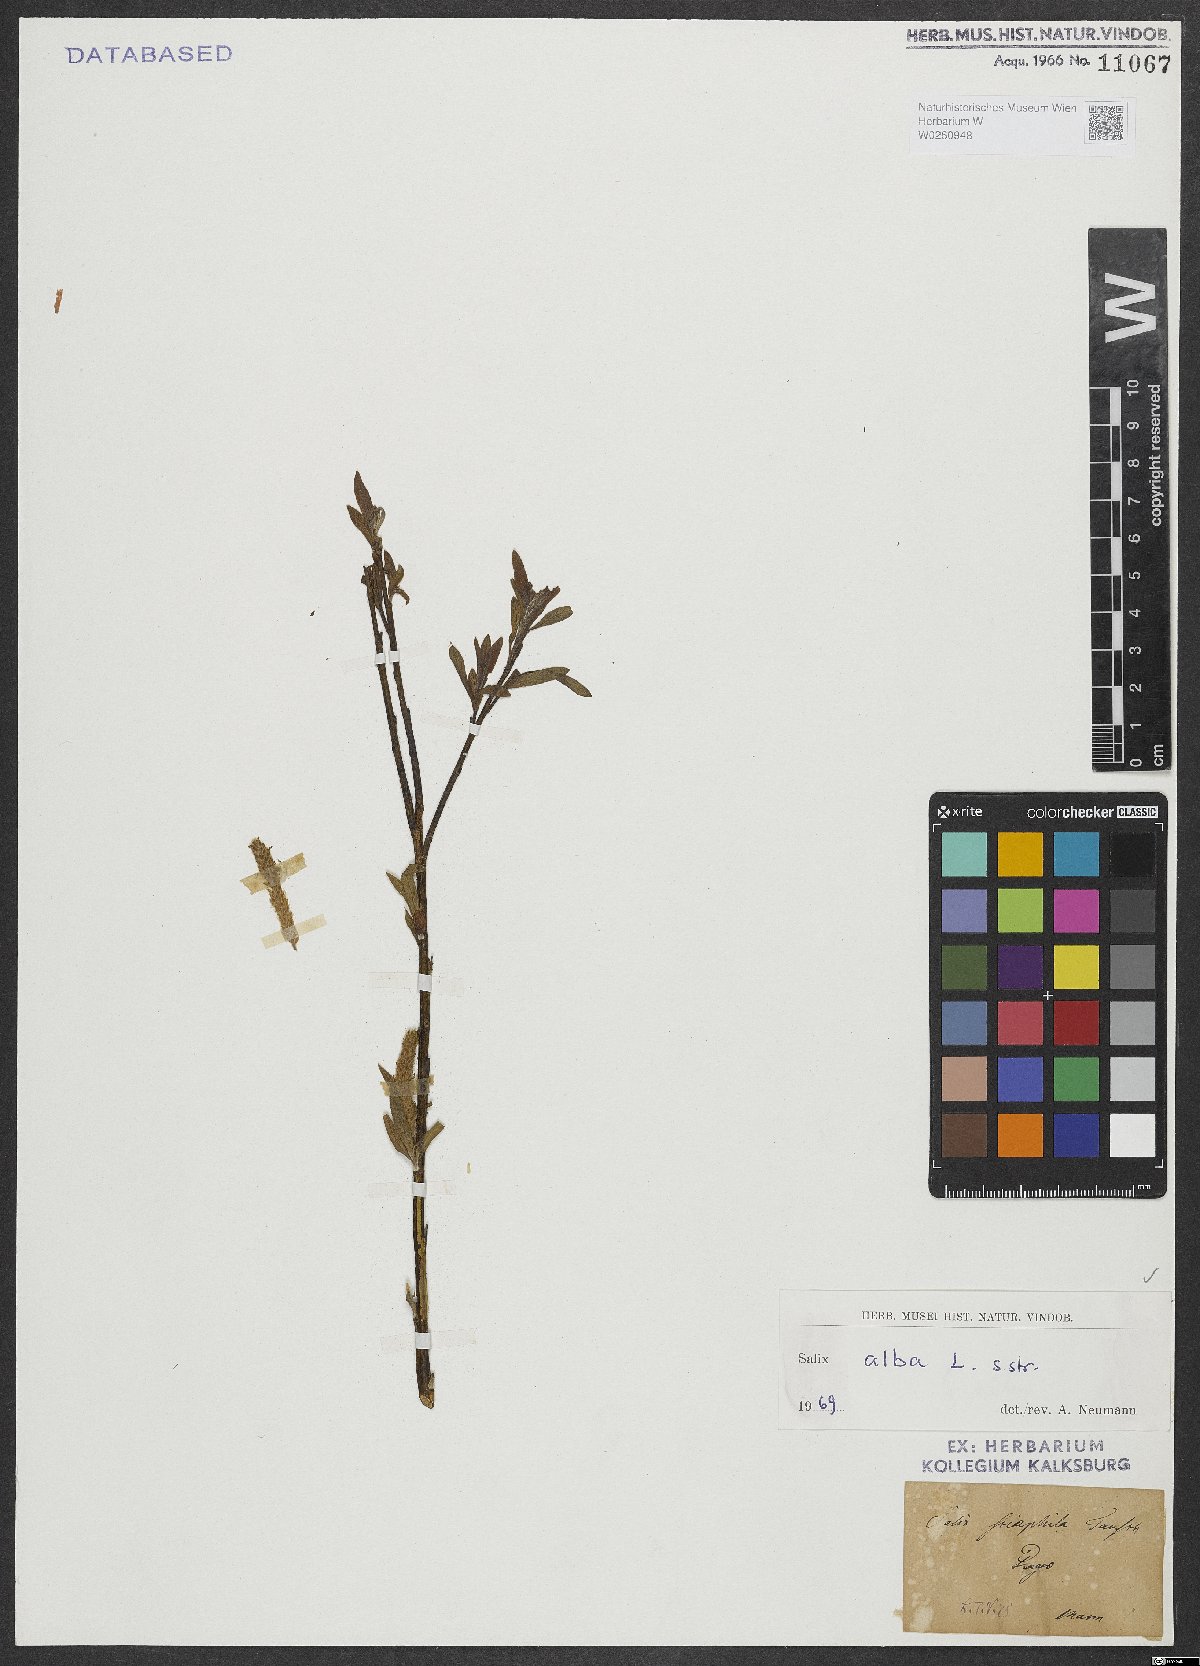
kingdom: Plantae
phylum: Tracheophyta
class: Magnoliopsida
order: Malpighiales
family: Salicaceae
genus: Salix
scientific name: Salix alba
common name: White willow
